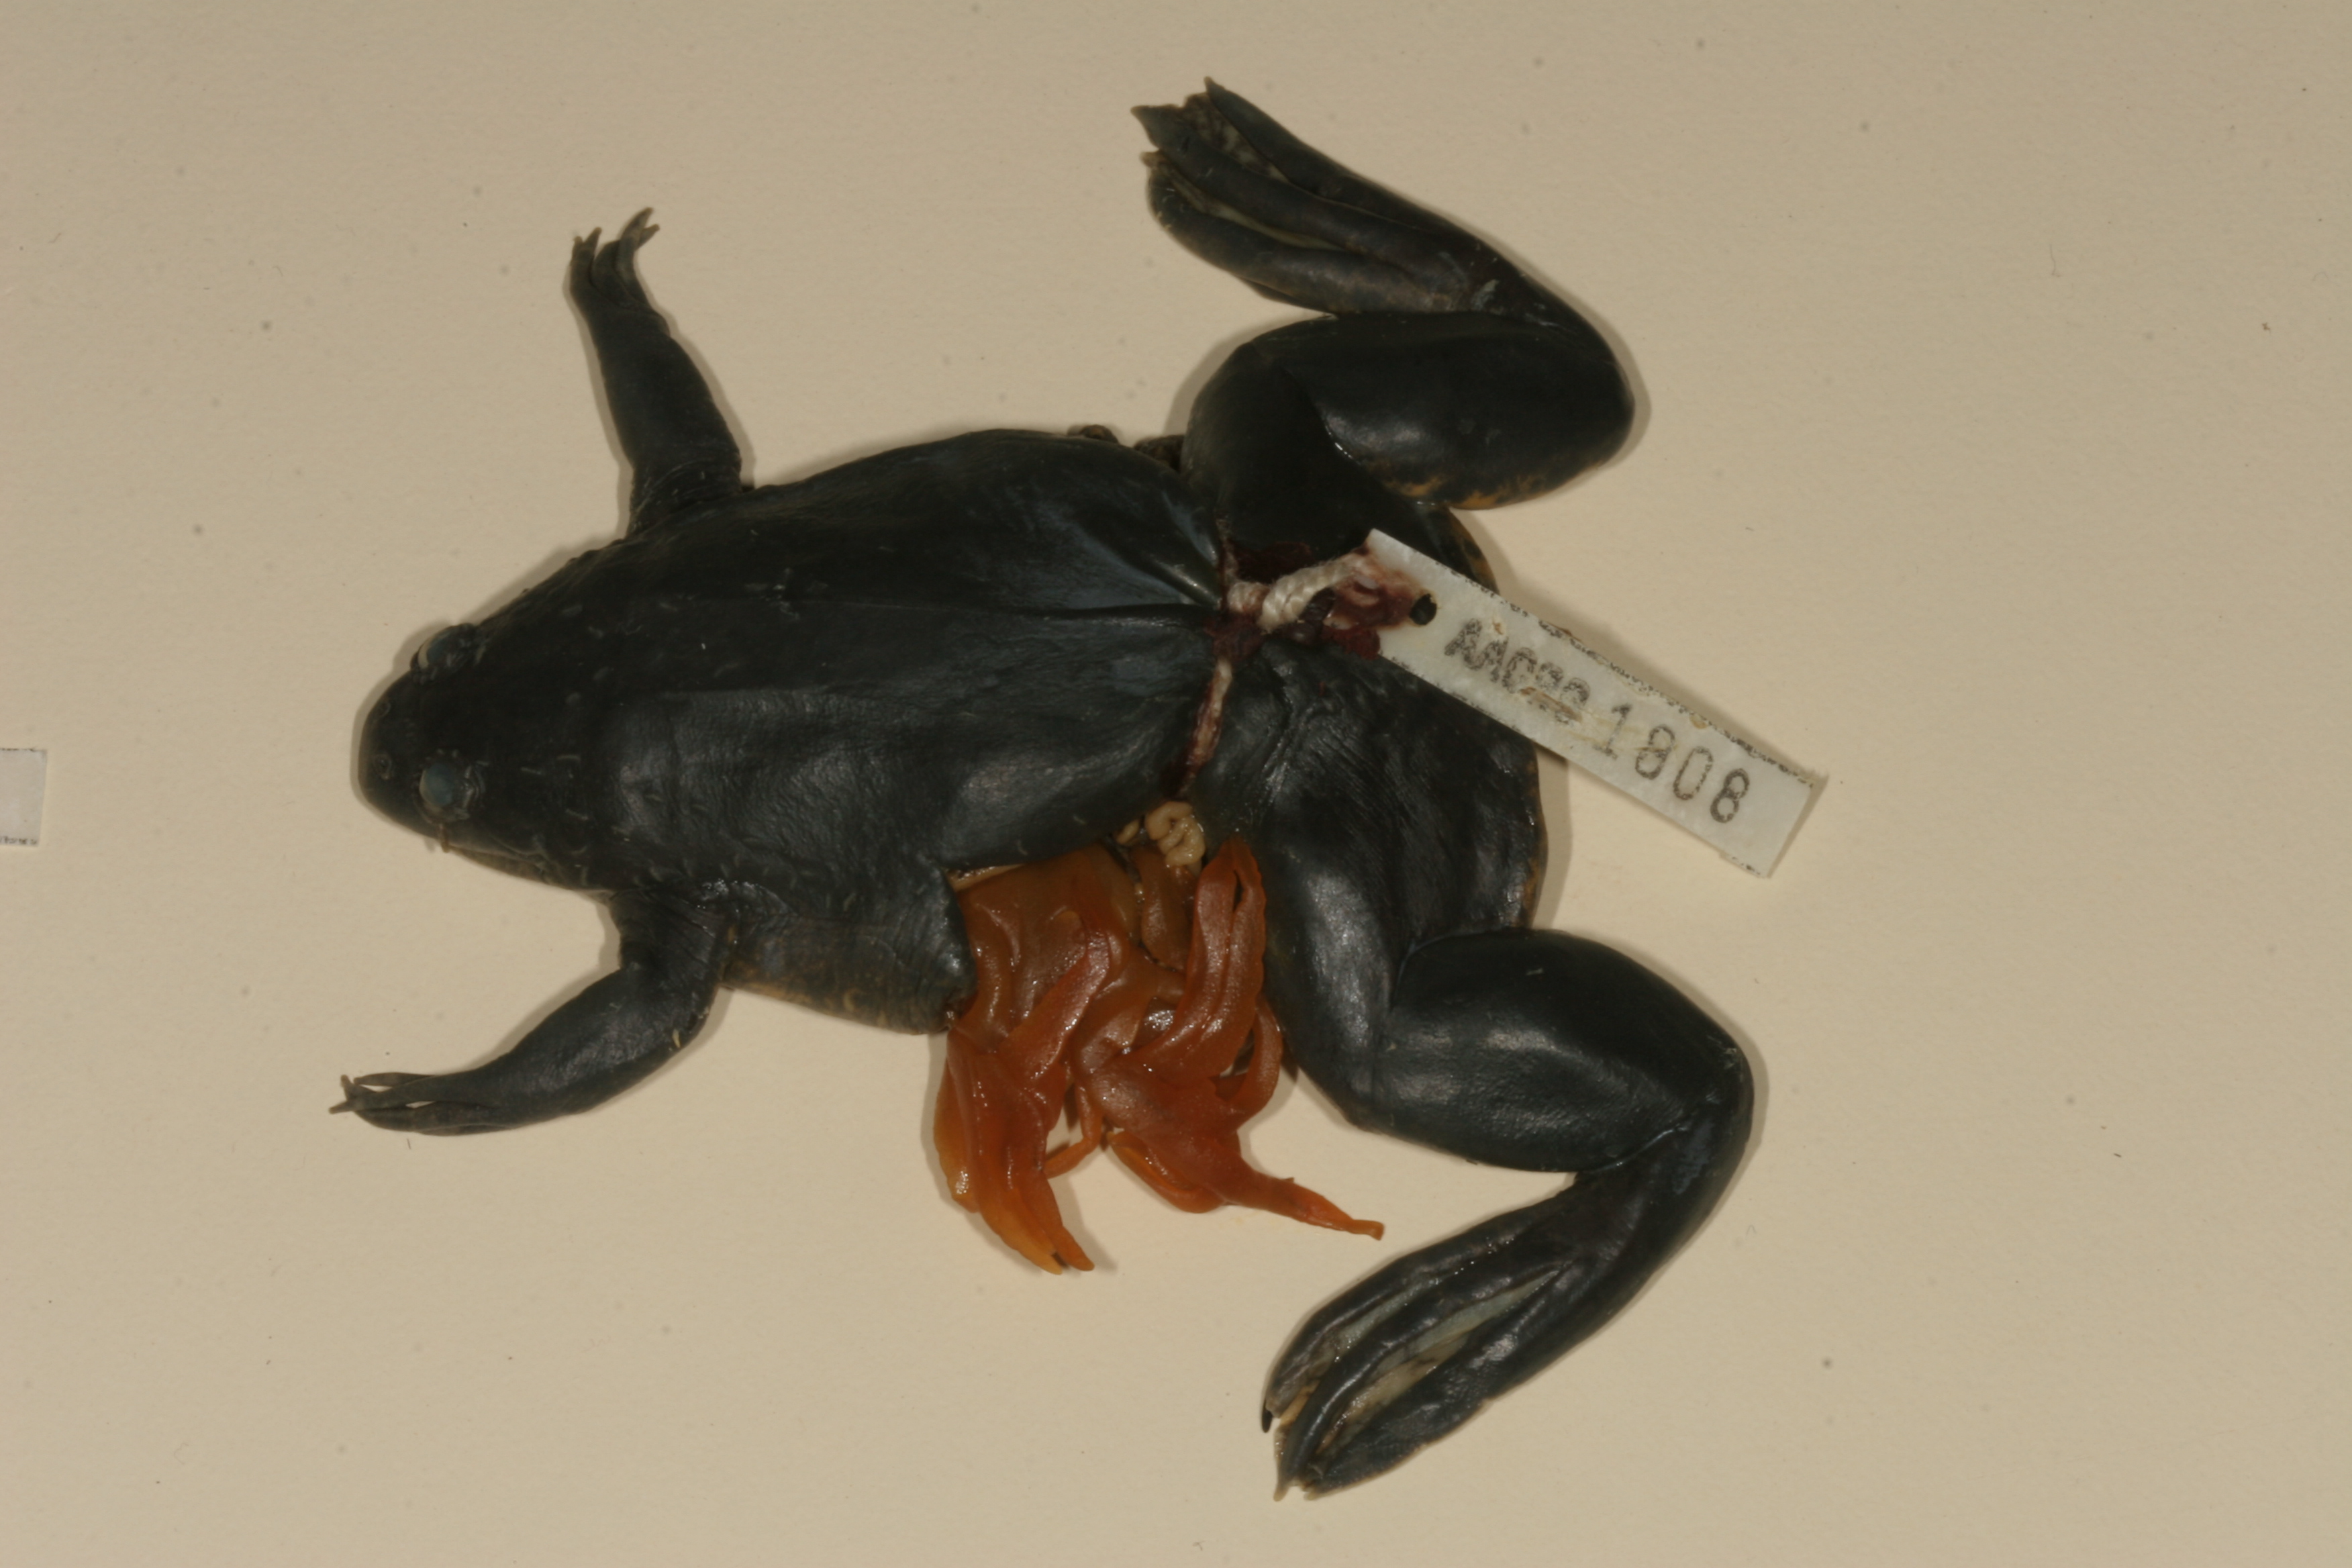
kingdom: Animalia
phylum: Chordata
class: Amphibia
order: Anura
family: Pipidae
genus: Xenopus
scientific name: Xenopus muelleri
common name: Muller's clawed frog
